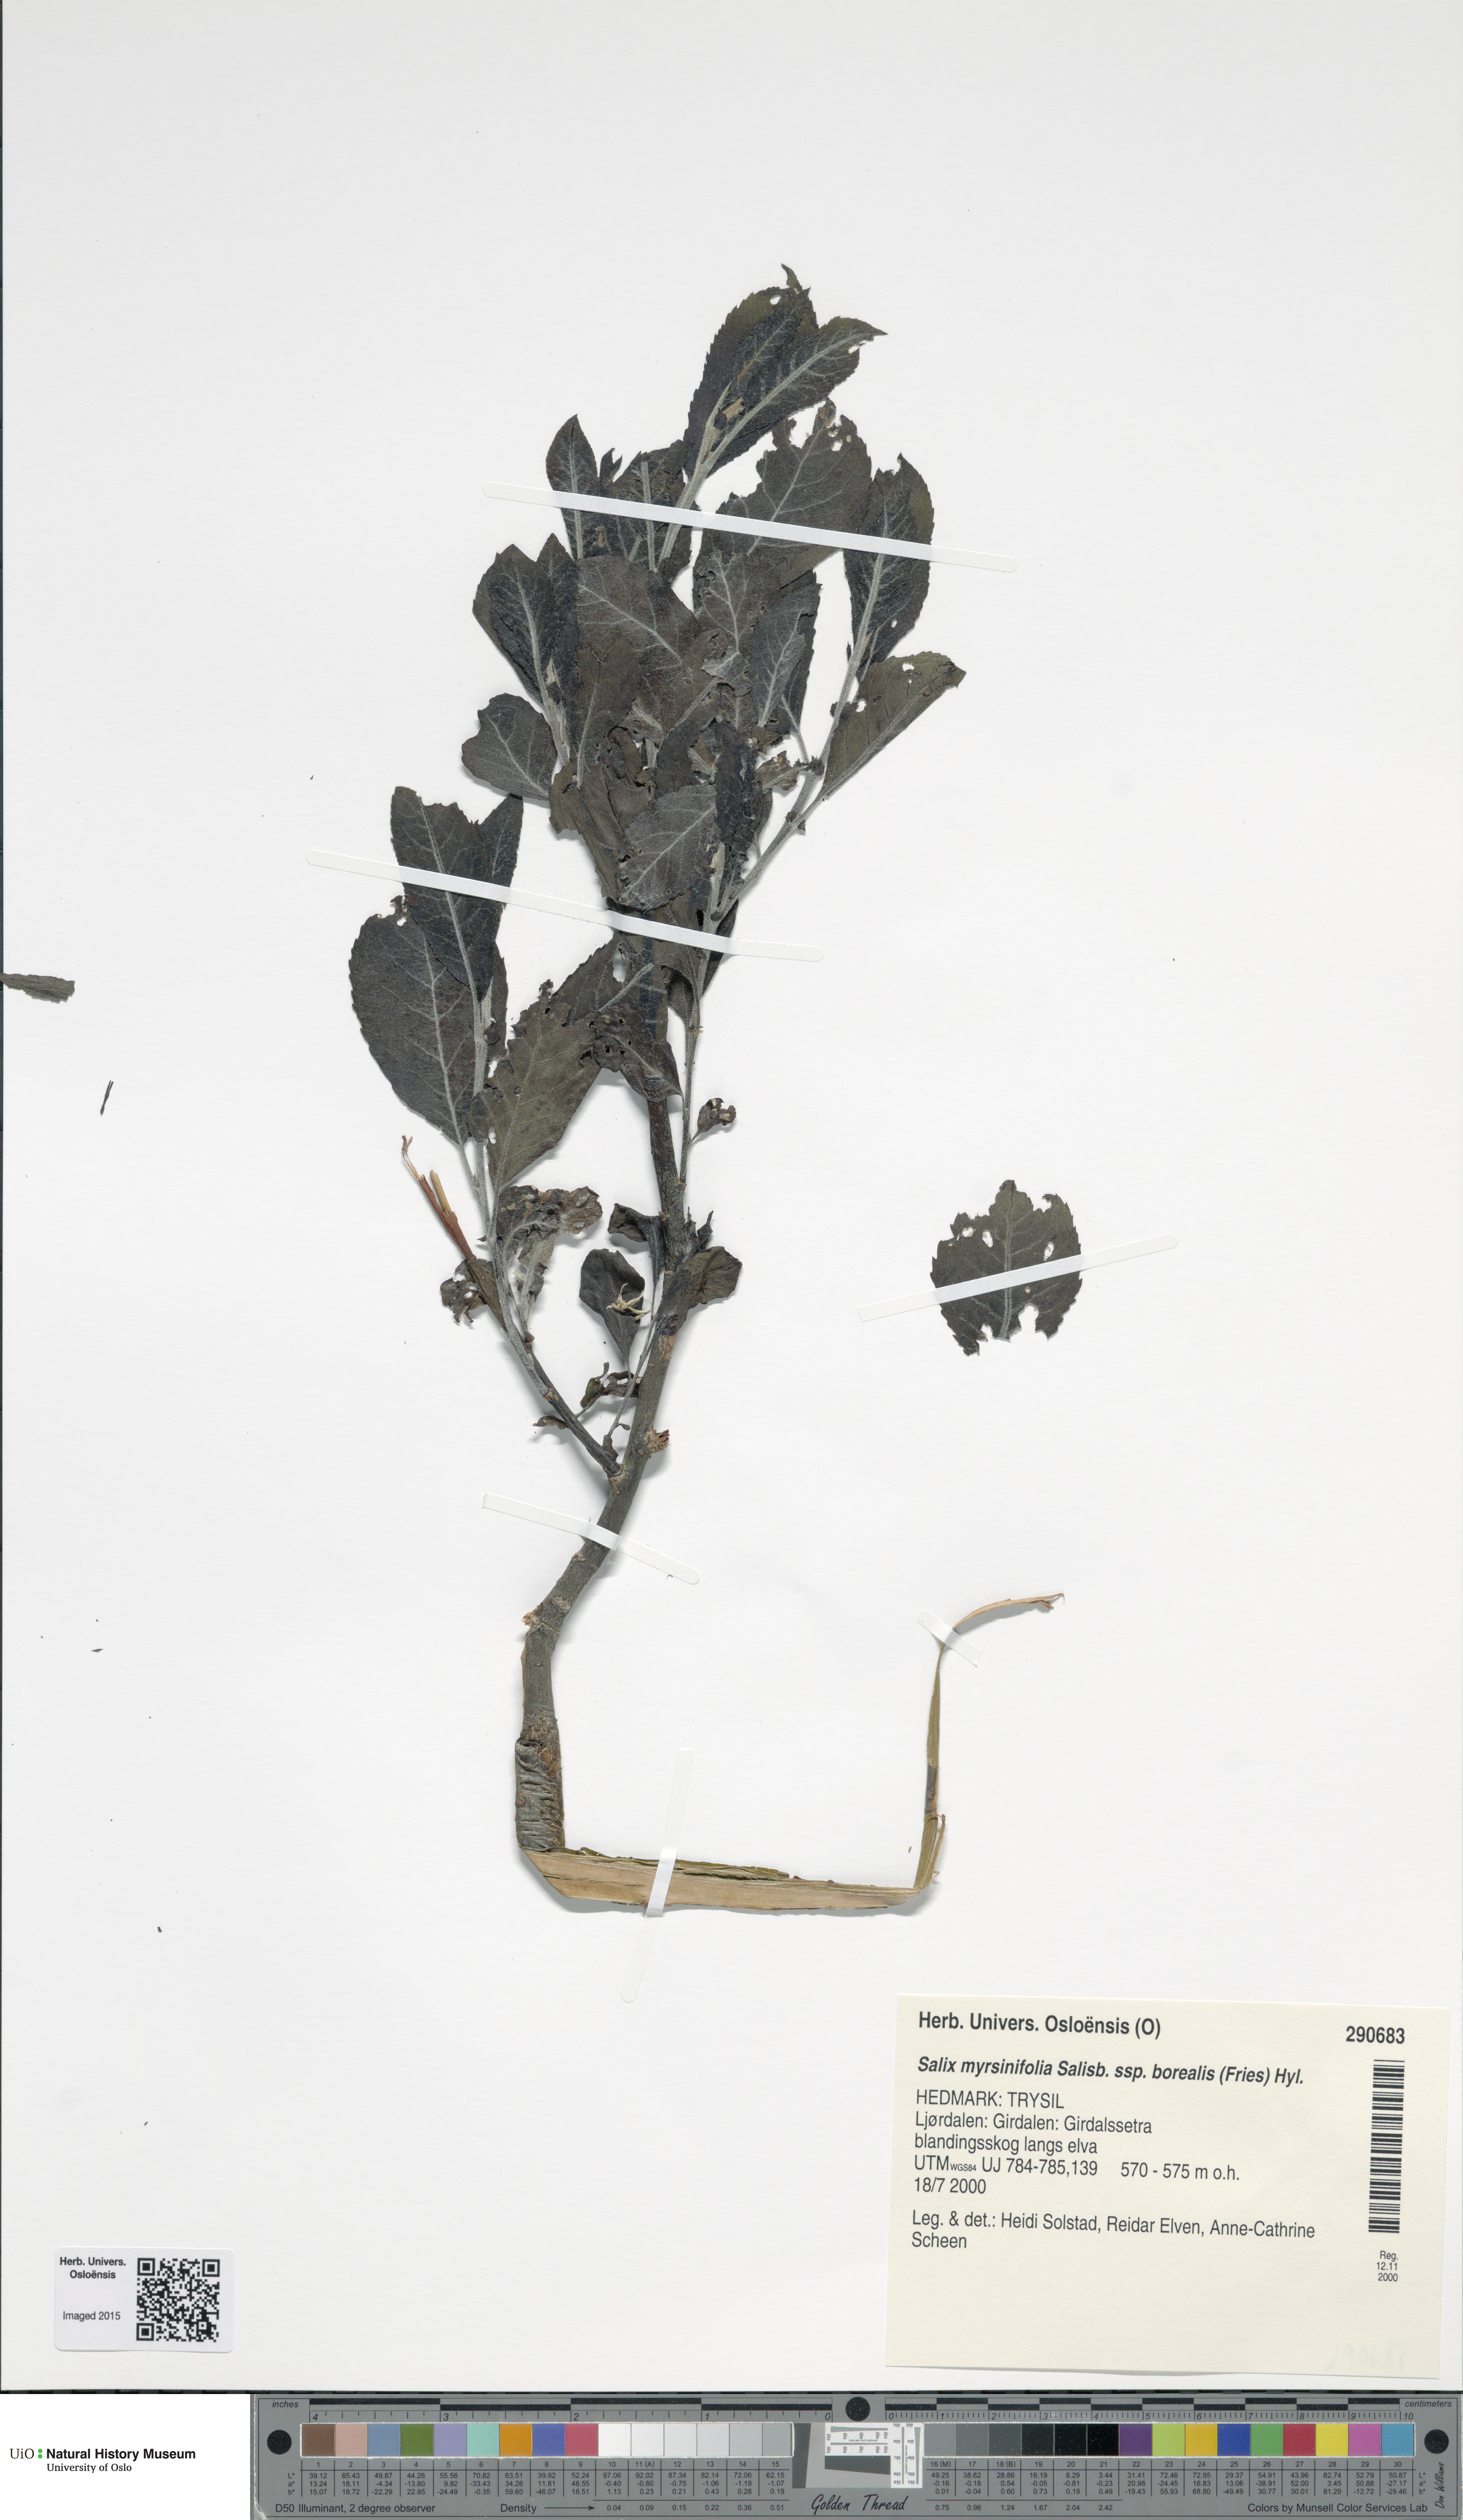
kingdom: Plantae
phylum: Tracheophyta
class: Magnoliopsida
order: Malpighiales
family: Salicaceae
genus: Salix
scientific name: Salix myrsinifolia
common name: Dark-leaved willow
